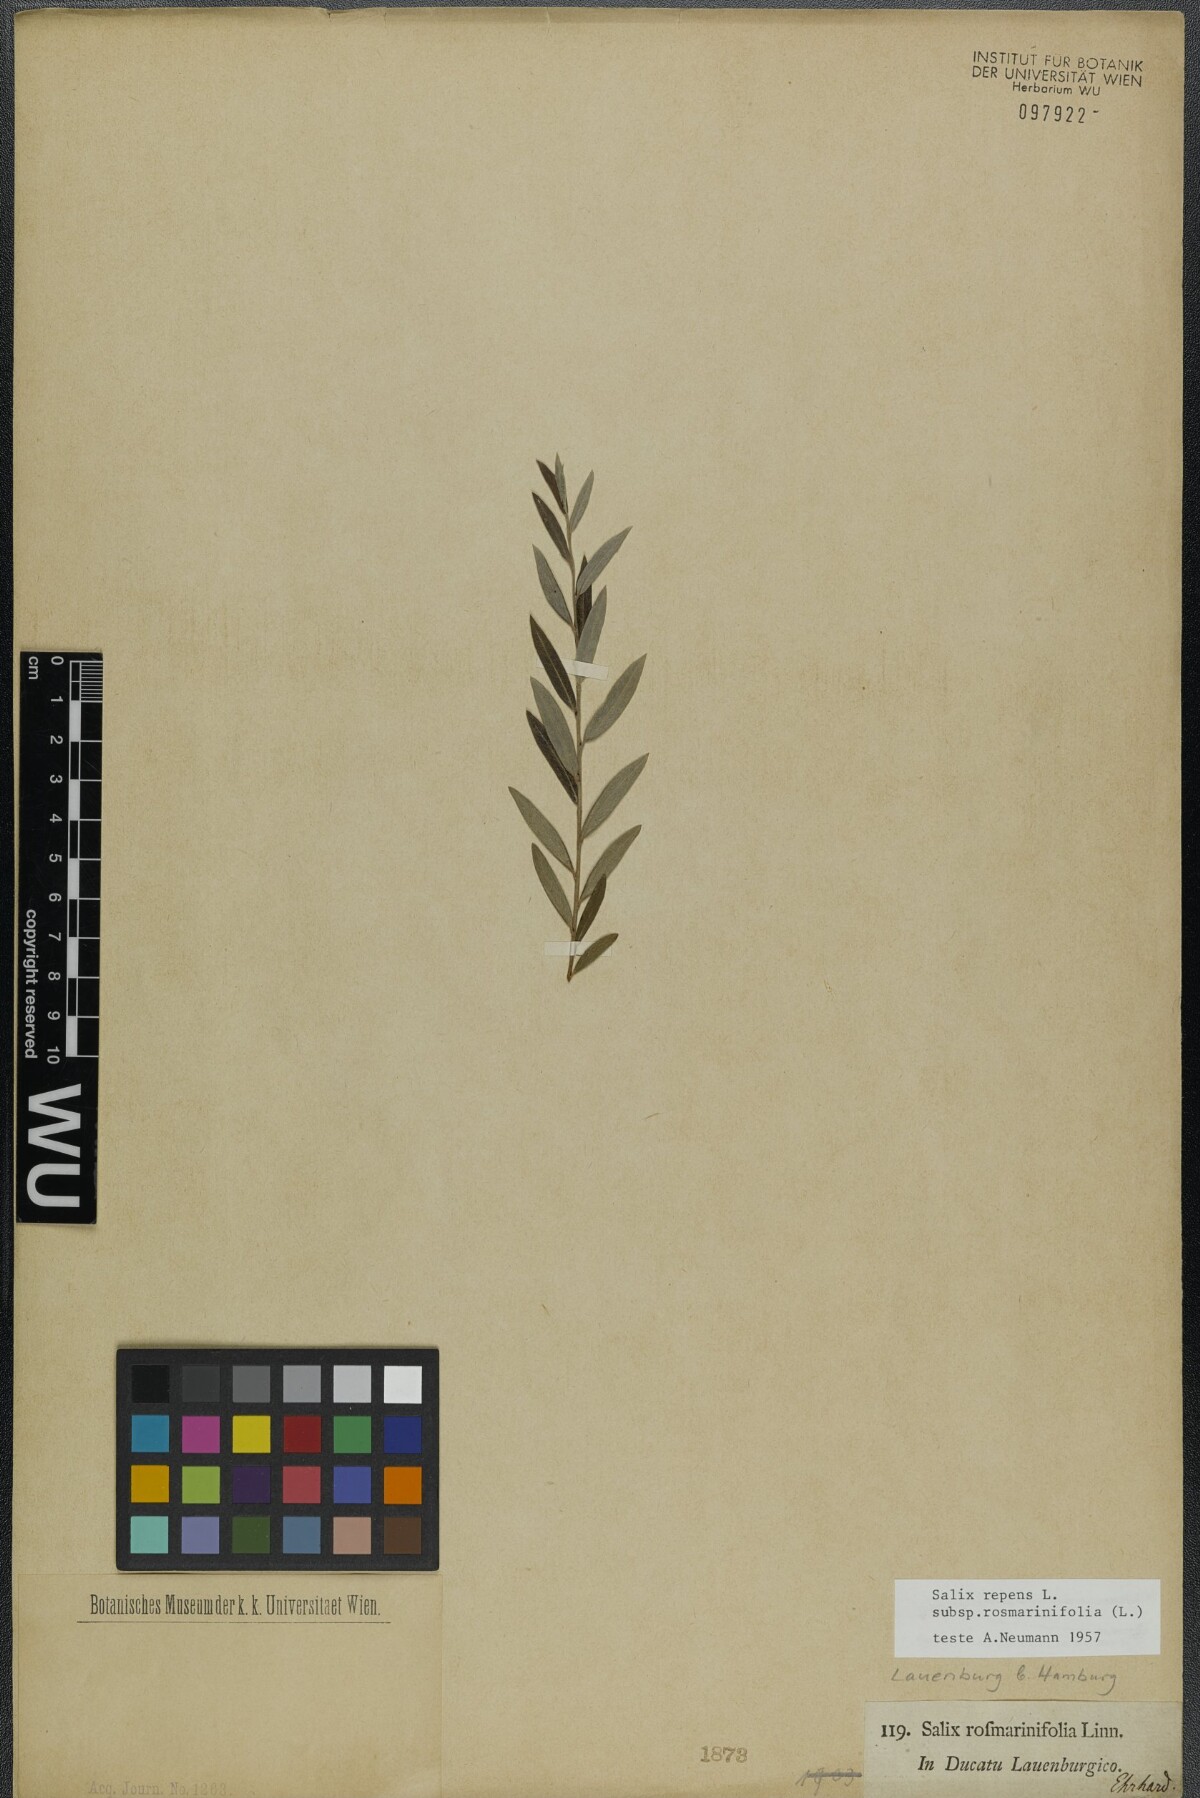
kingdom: Plantae
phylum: Tracheophyta
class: Magnoliopsida
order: Malpighiales
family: Salicaceae
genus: Salix
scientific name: Salix repens
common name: Creeping willow
